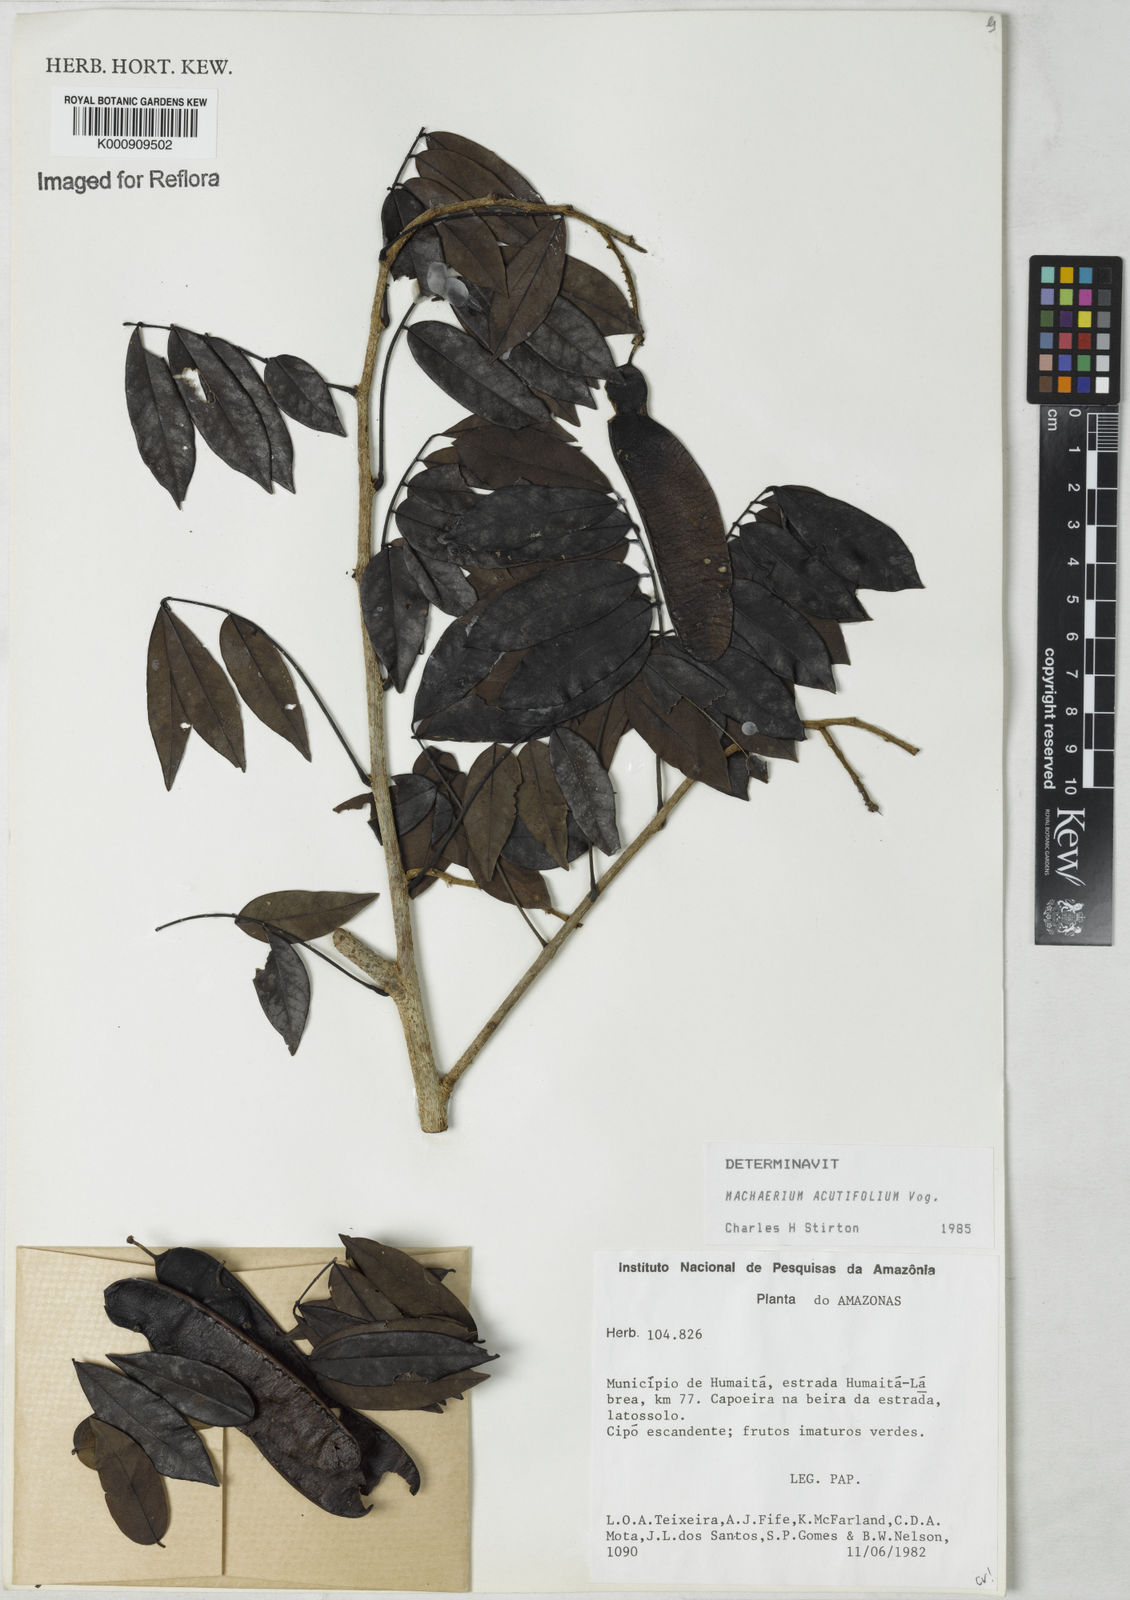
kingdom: Plantae
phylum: Tracheophyta
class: Magnoliopsida
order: Fabales
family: Fabaceae
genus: Machaerium
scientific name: Machaerium acutifolium
